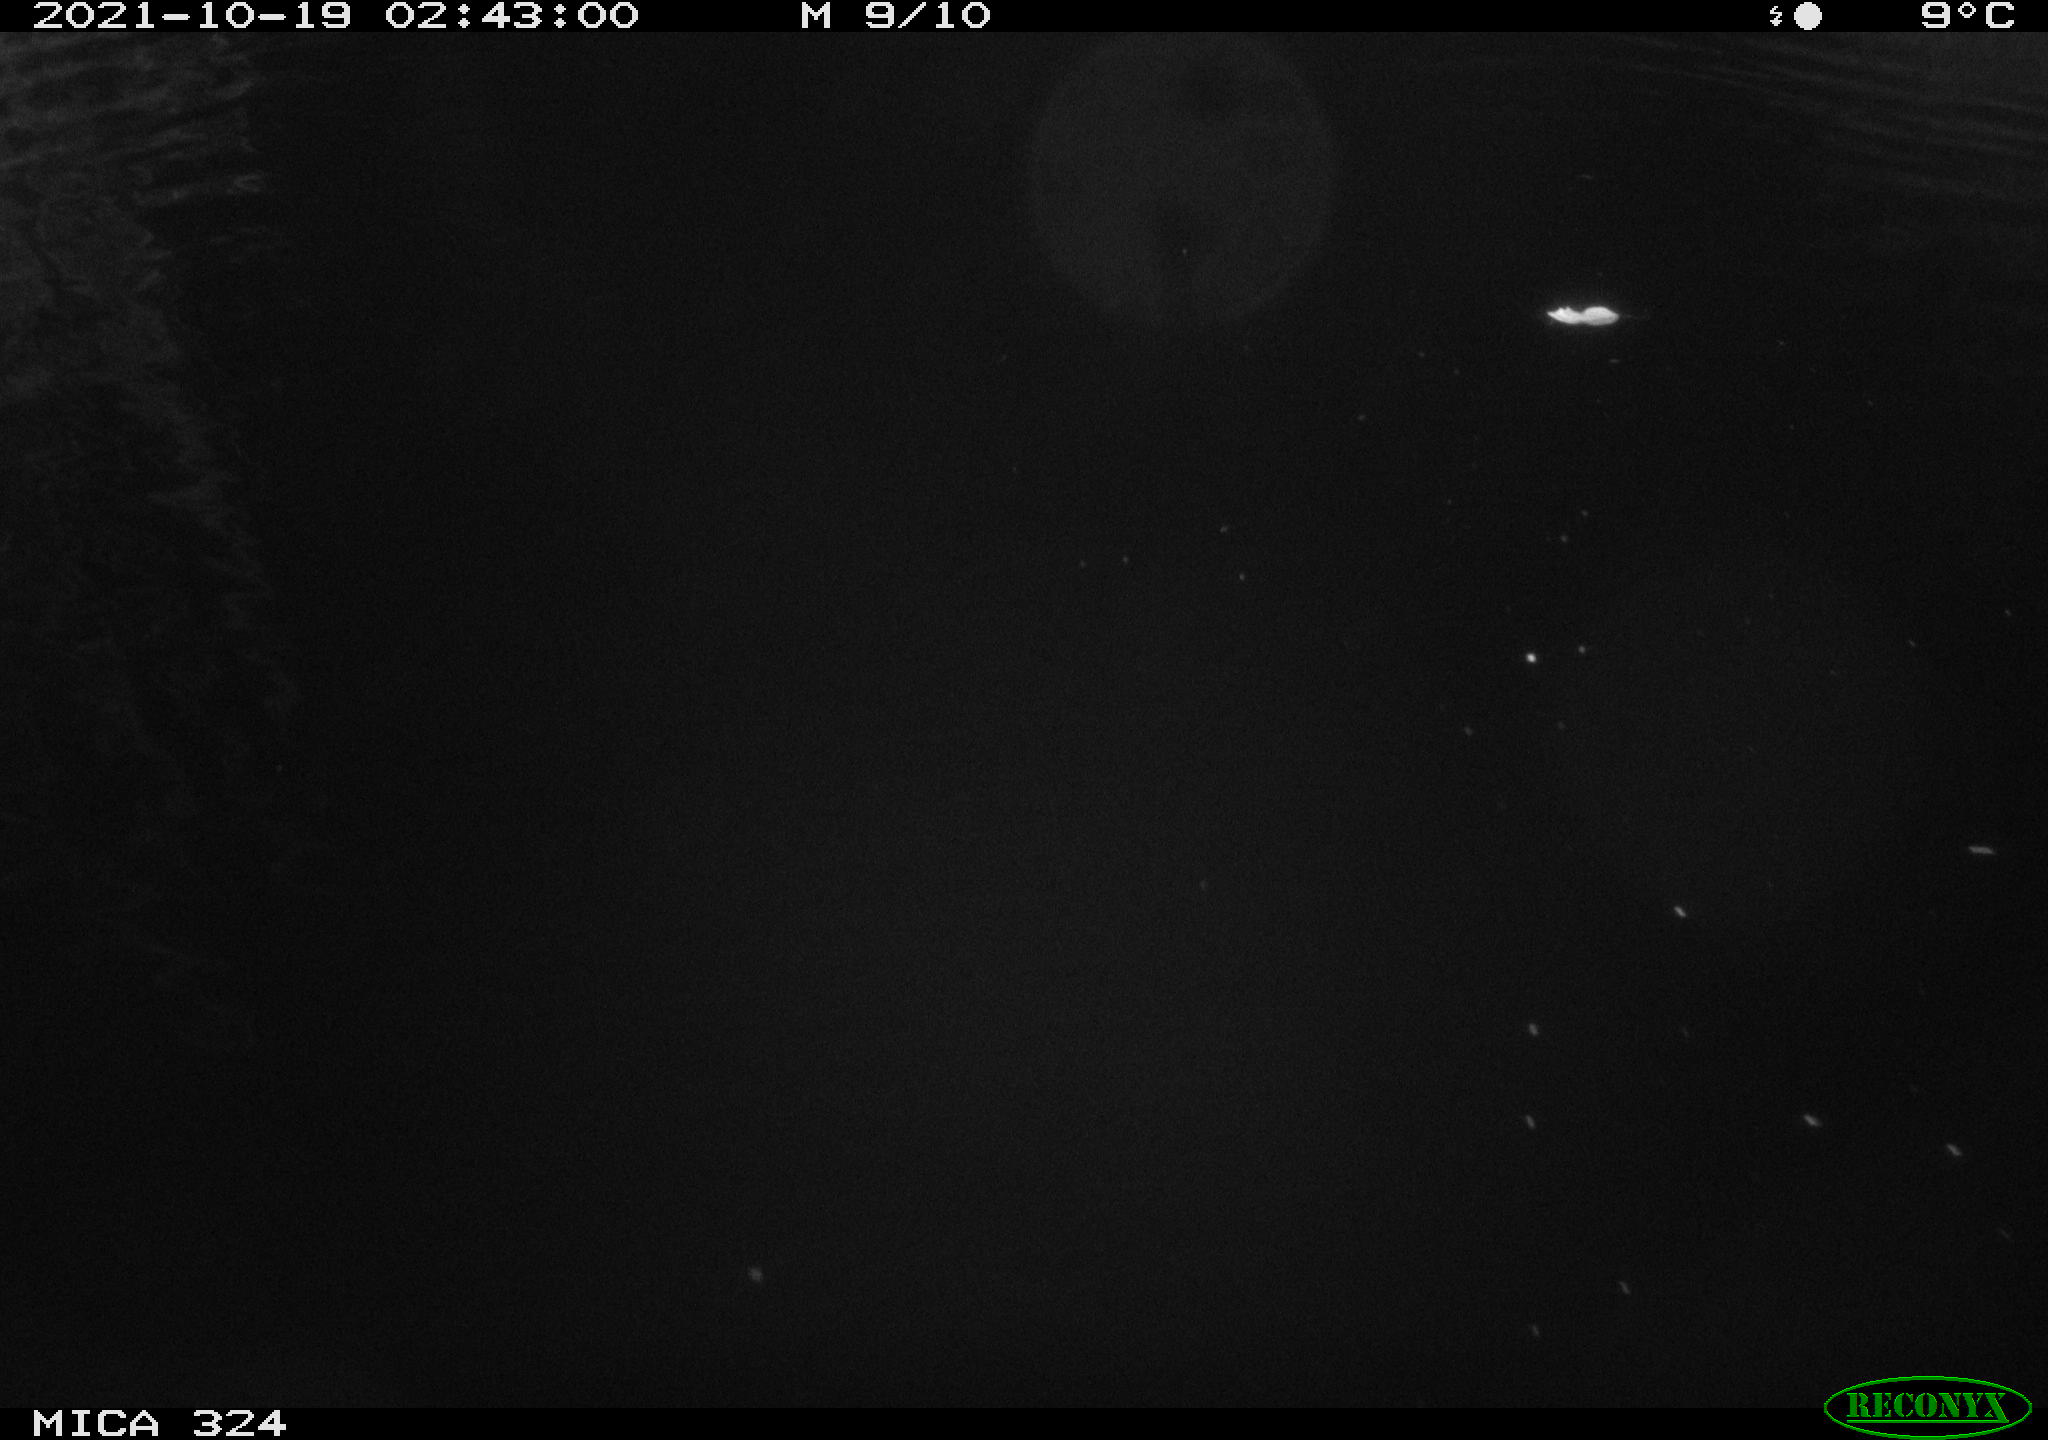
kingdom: Animalia
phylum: Chordata
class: Mammalia
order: Rodentia
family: Cricetidae
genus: Ondatra
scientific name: Ondatra zibethicus
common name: Muskrat
